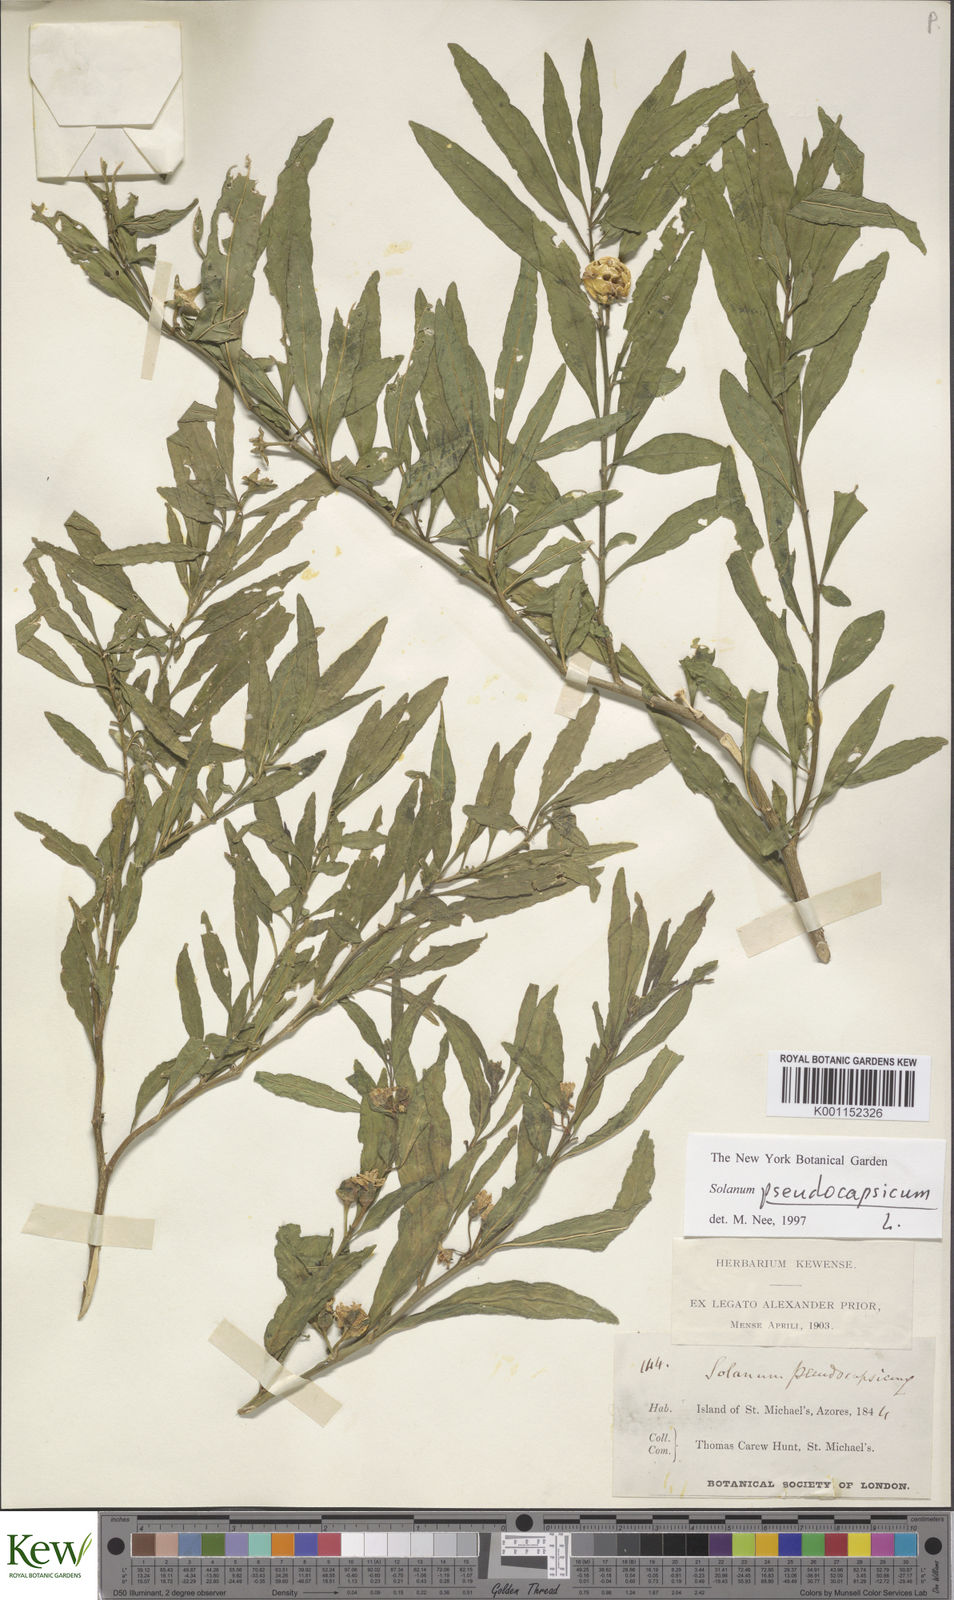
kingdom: Plantae
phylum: Tracheophyta
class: Magnoliopsida
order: Solanales
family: Solanaceae
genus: Solanum
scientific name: Solanum pseudocapsicum
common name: Jerusalem cherry
